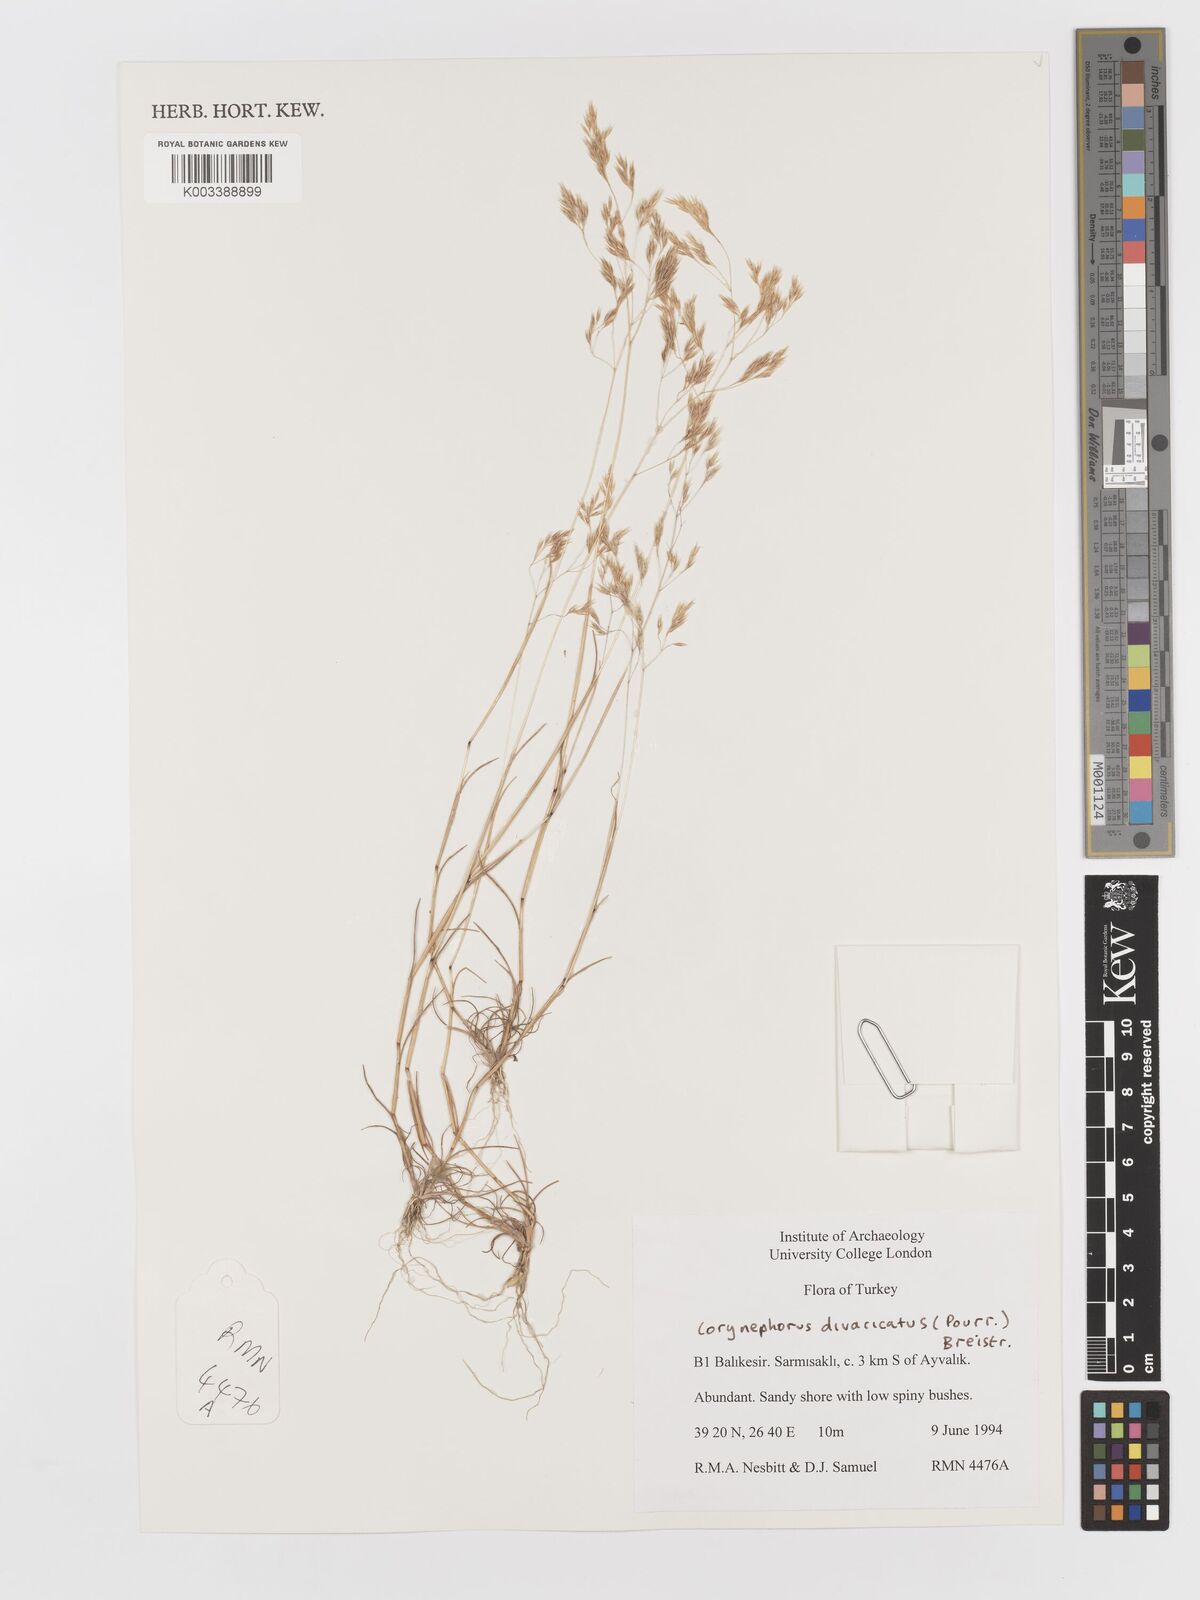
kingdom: Plantae
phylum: Tracheophyta
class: Liliopsida
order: Poales
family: Poaceae
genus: Corynephorus
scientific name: Corynephorus divaricatus
